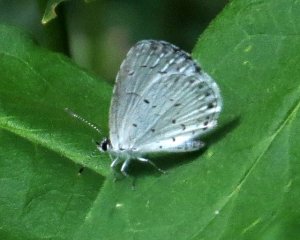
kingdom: Animalia
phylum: Arthropoda
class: Insecta
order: Lepidoptera
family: Lycaenidae
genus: Cyaniris
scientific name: Cyaniris neglecta
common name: Summer Azure
